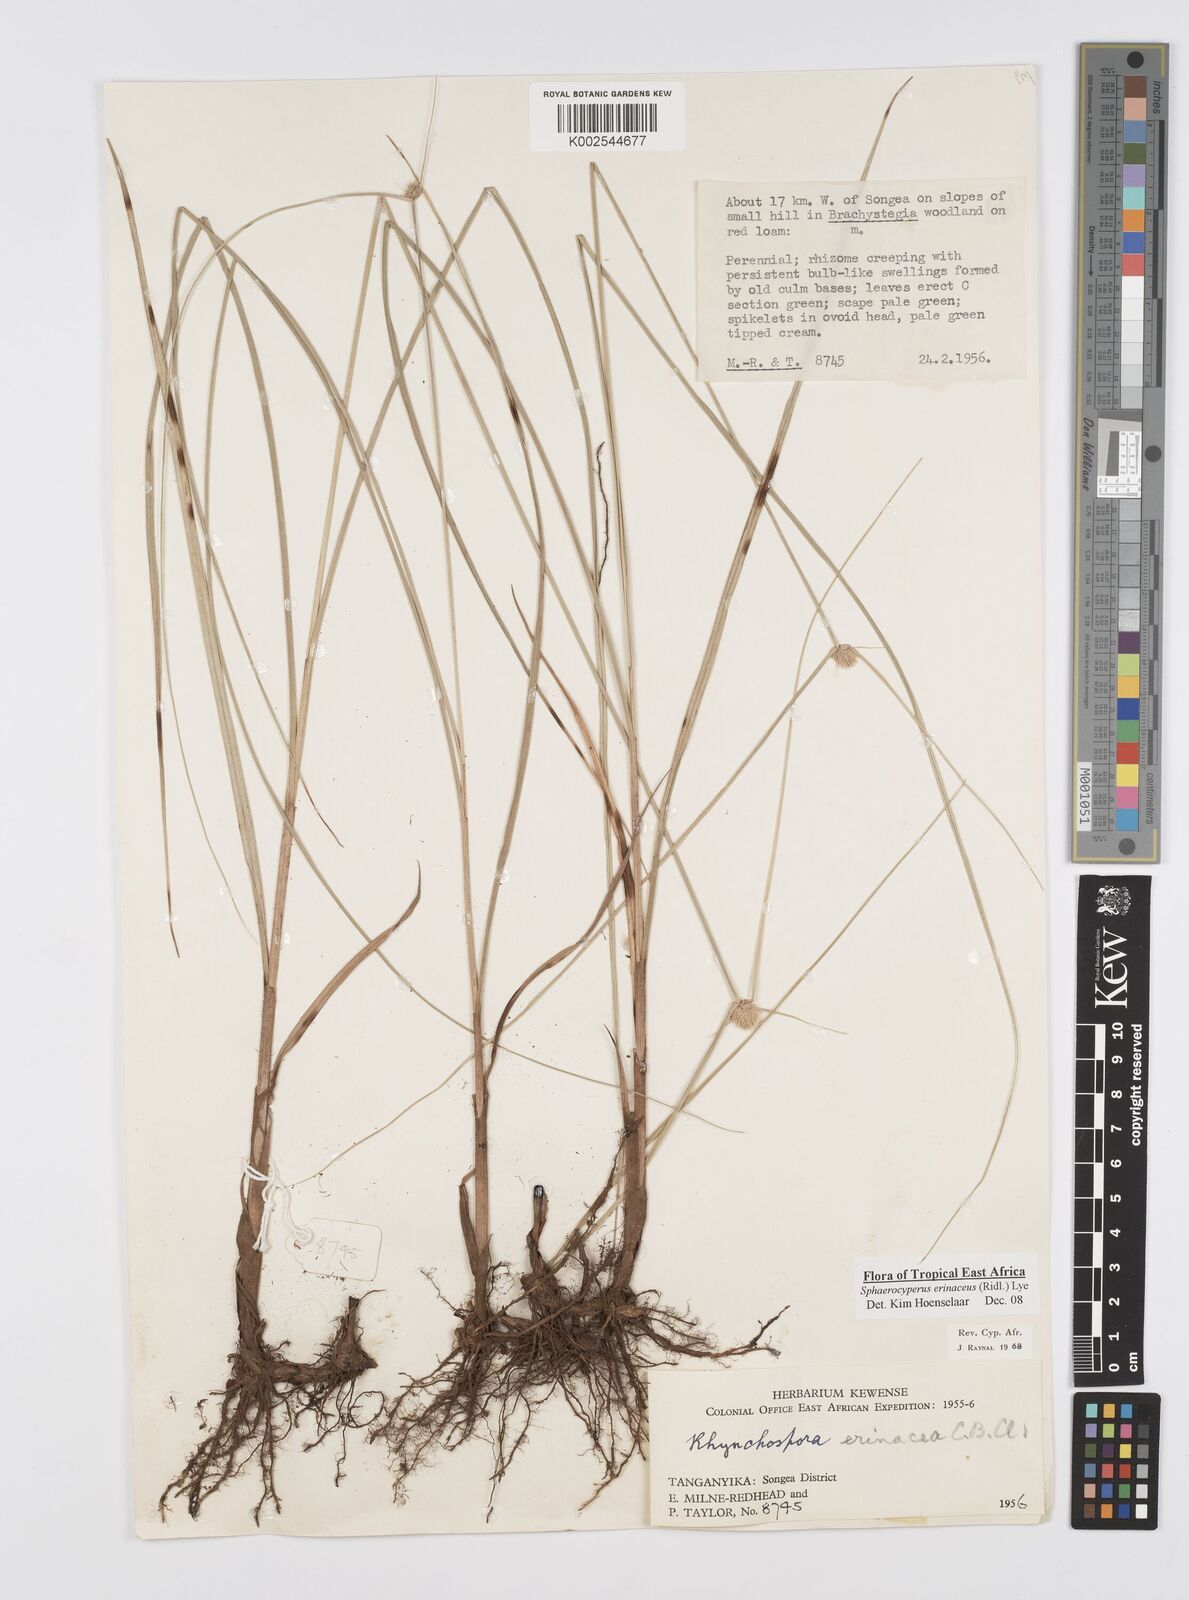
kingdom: Plantae
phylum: Tracheophyta
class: Liliopsida
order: Poales
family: Cyperaceae
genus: Cyperus
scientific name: Cyperus erinaceus
